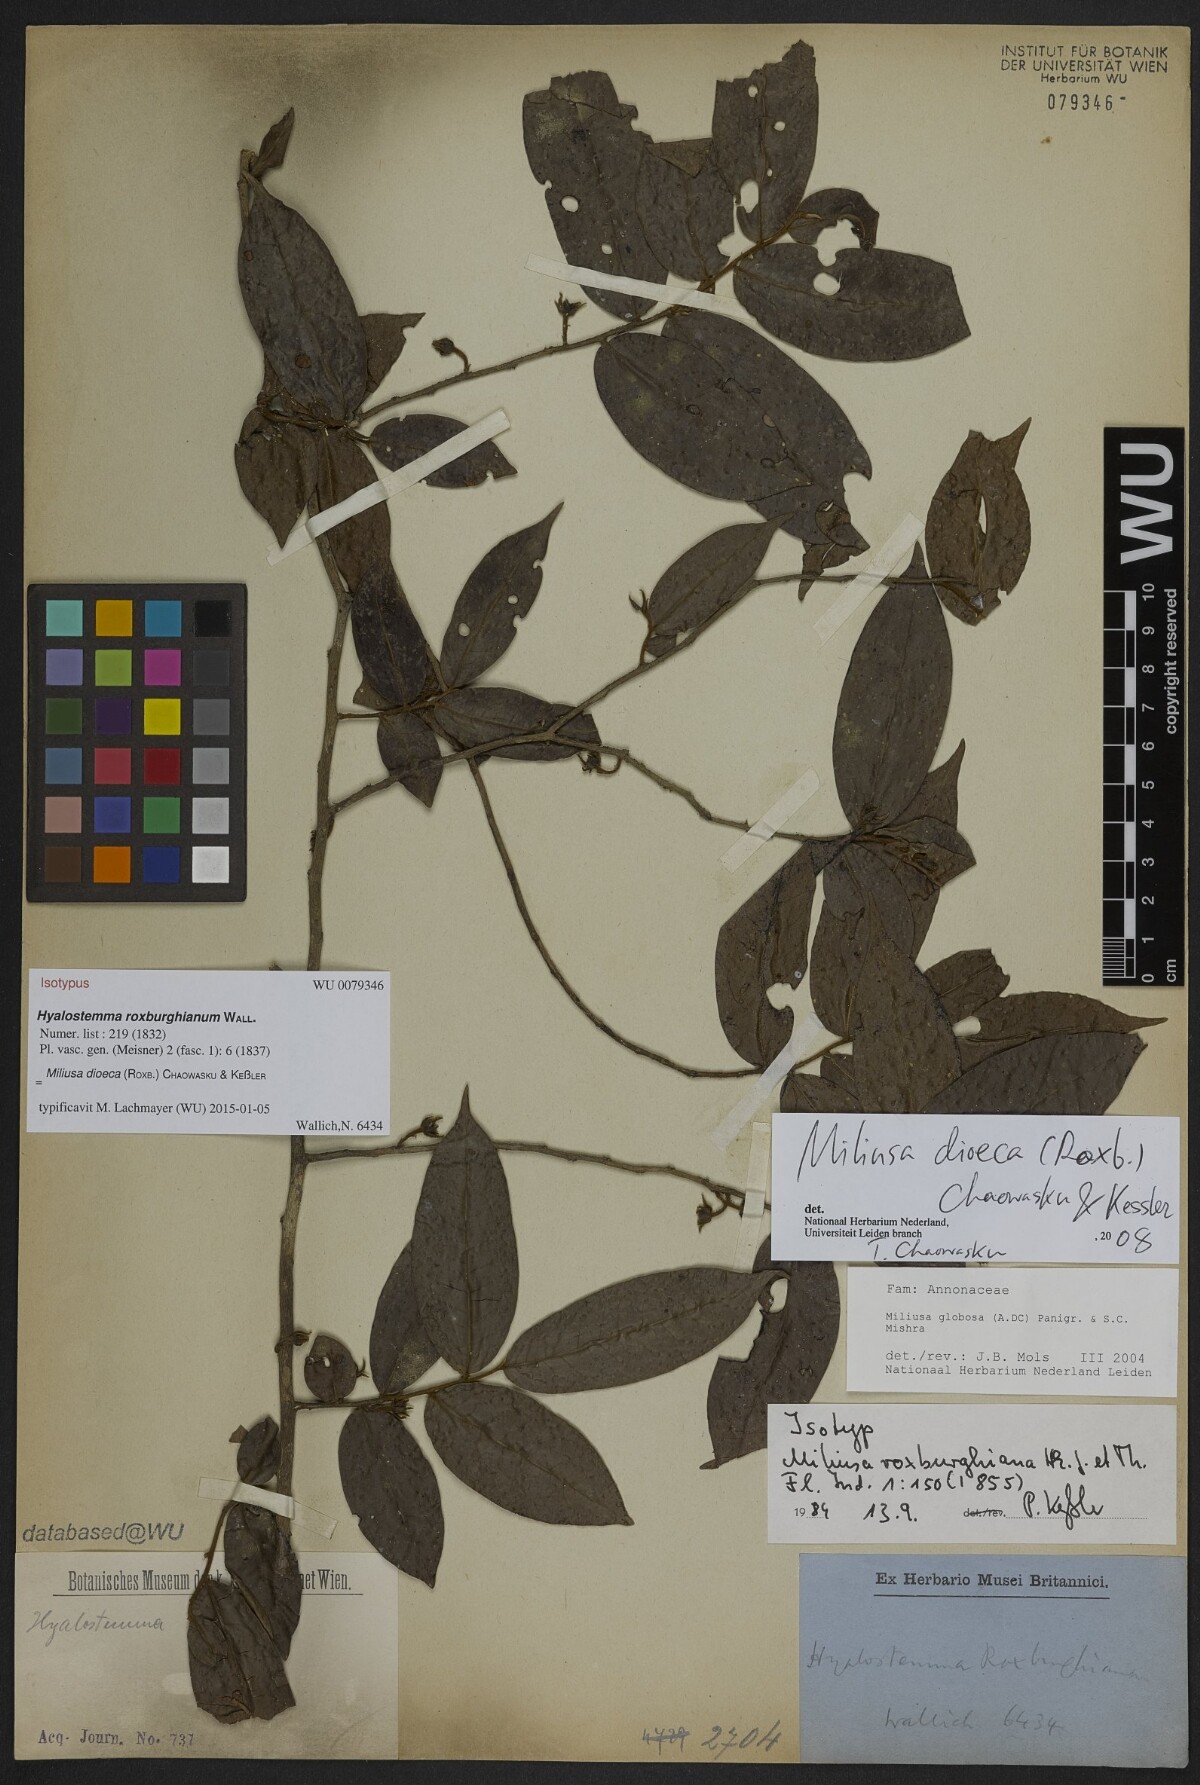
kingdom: Plantae
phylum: Tracheophyta
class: Magnoliopsida
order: Magnoliales
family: Annonaceae
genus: Miliusa
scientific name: Miliusa roxburghiana
